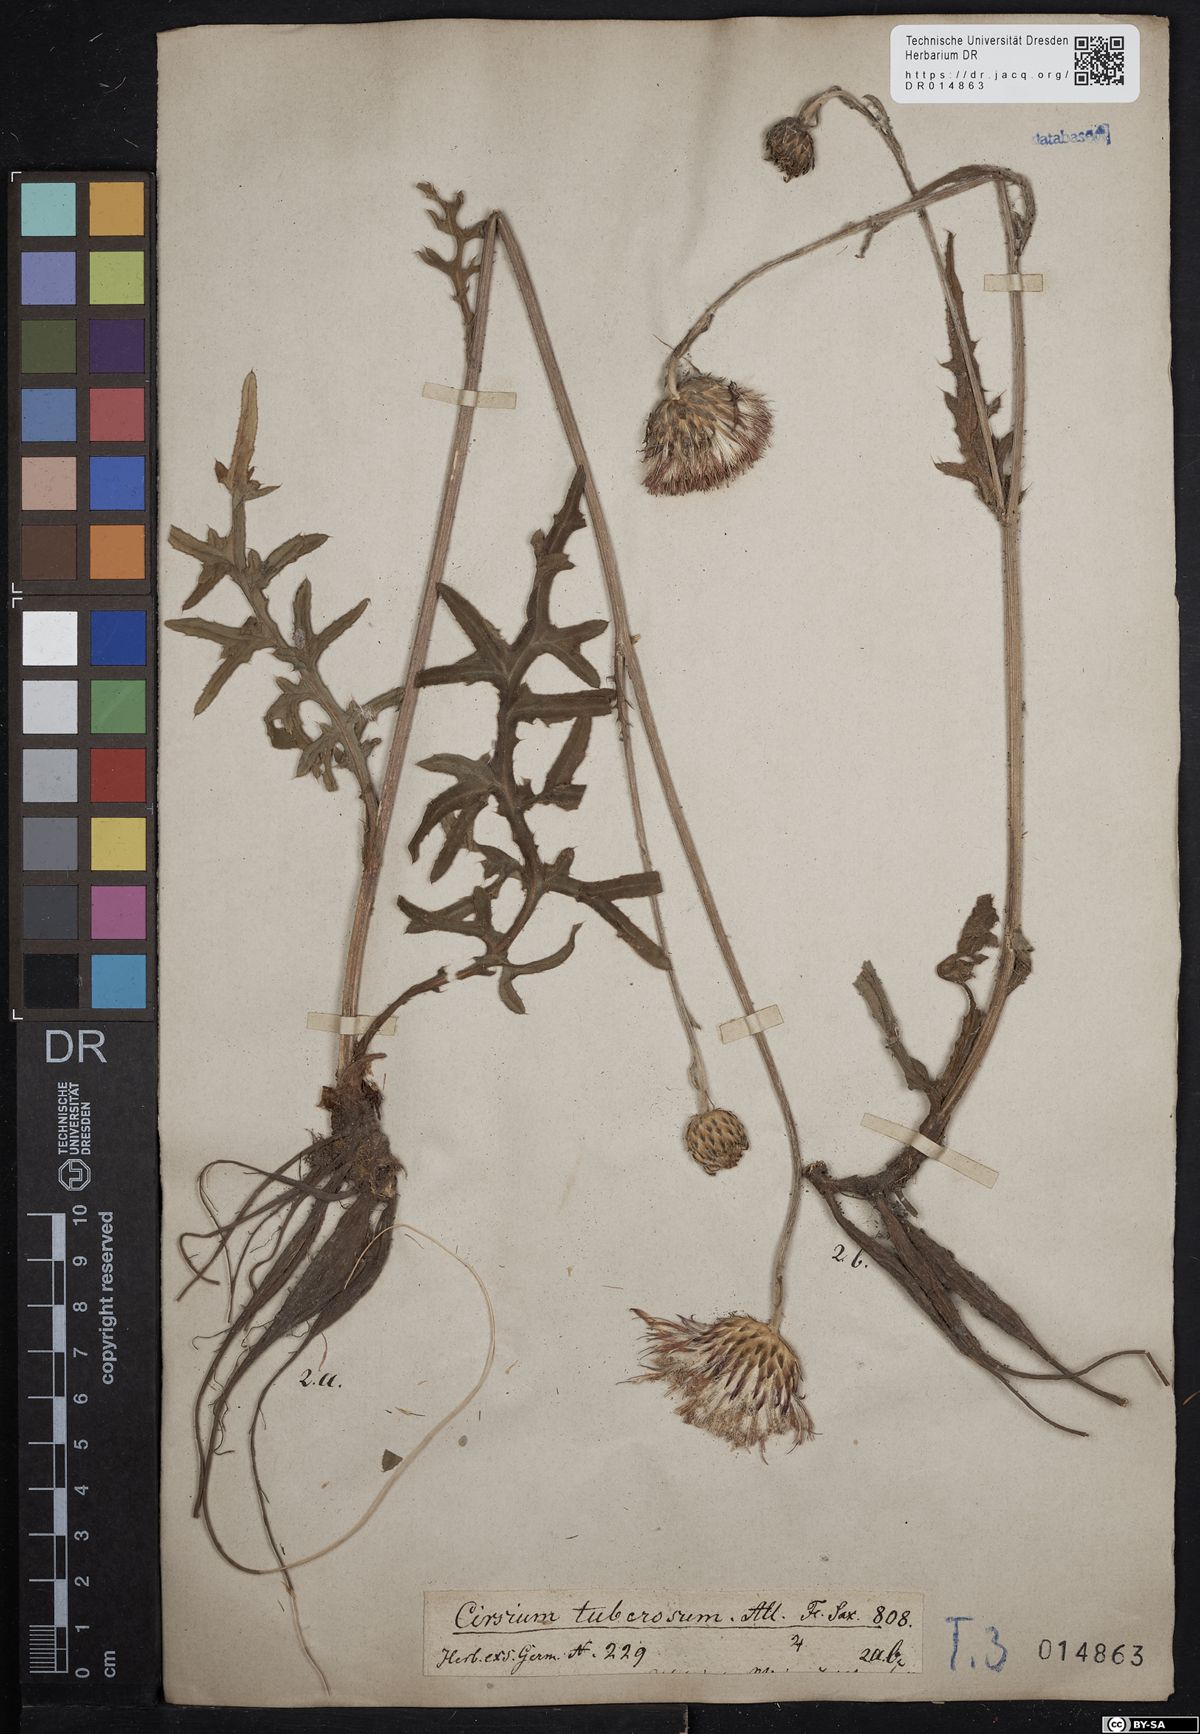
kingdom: Plantae
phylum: Tracheophyta
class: Magnoliopsida
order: Asterales
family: Asteraceae
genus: Cirsium
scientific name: Cirsium tuberosum
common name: Tuberous thistle
